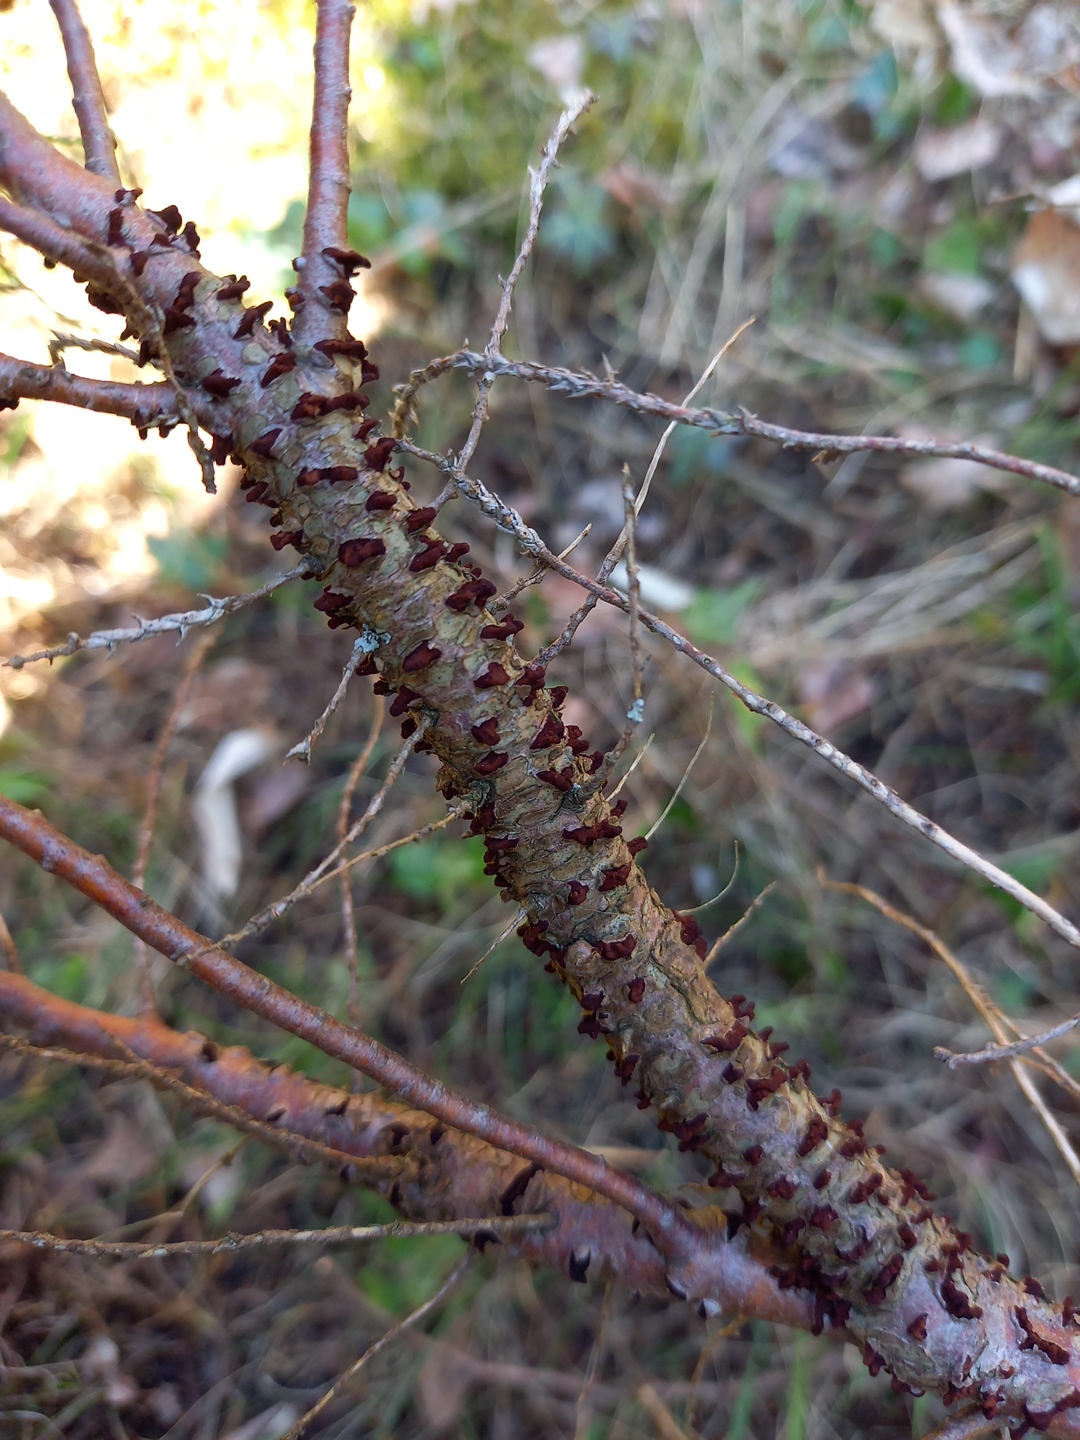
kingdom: Fungi
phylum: Basidiomycota
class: Pucciniomycetes
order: Pucciniales
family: Gymnosporangiaceae
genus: Gymnosporangium
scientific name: Gymnosporangium
